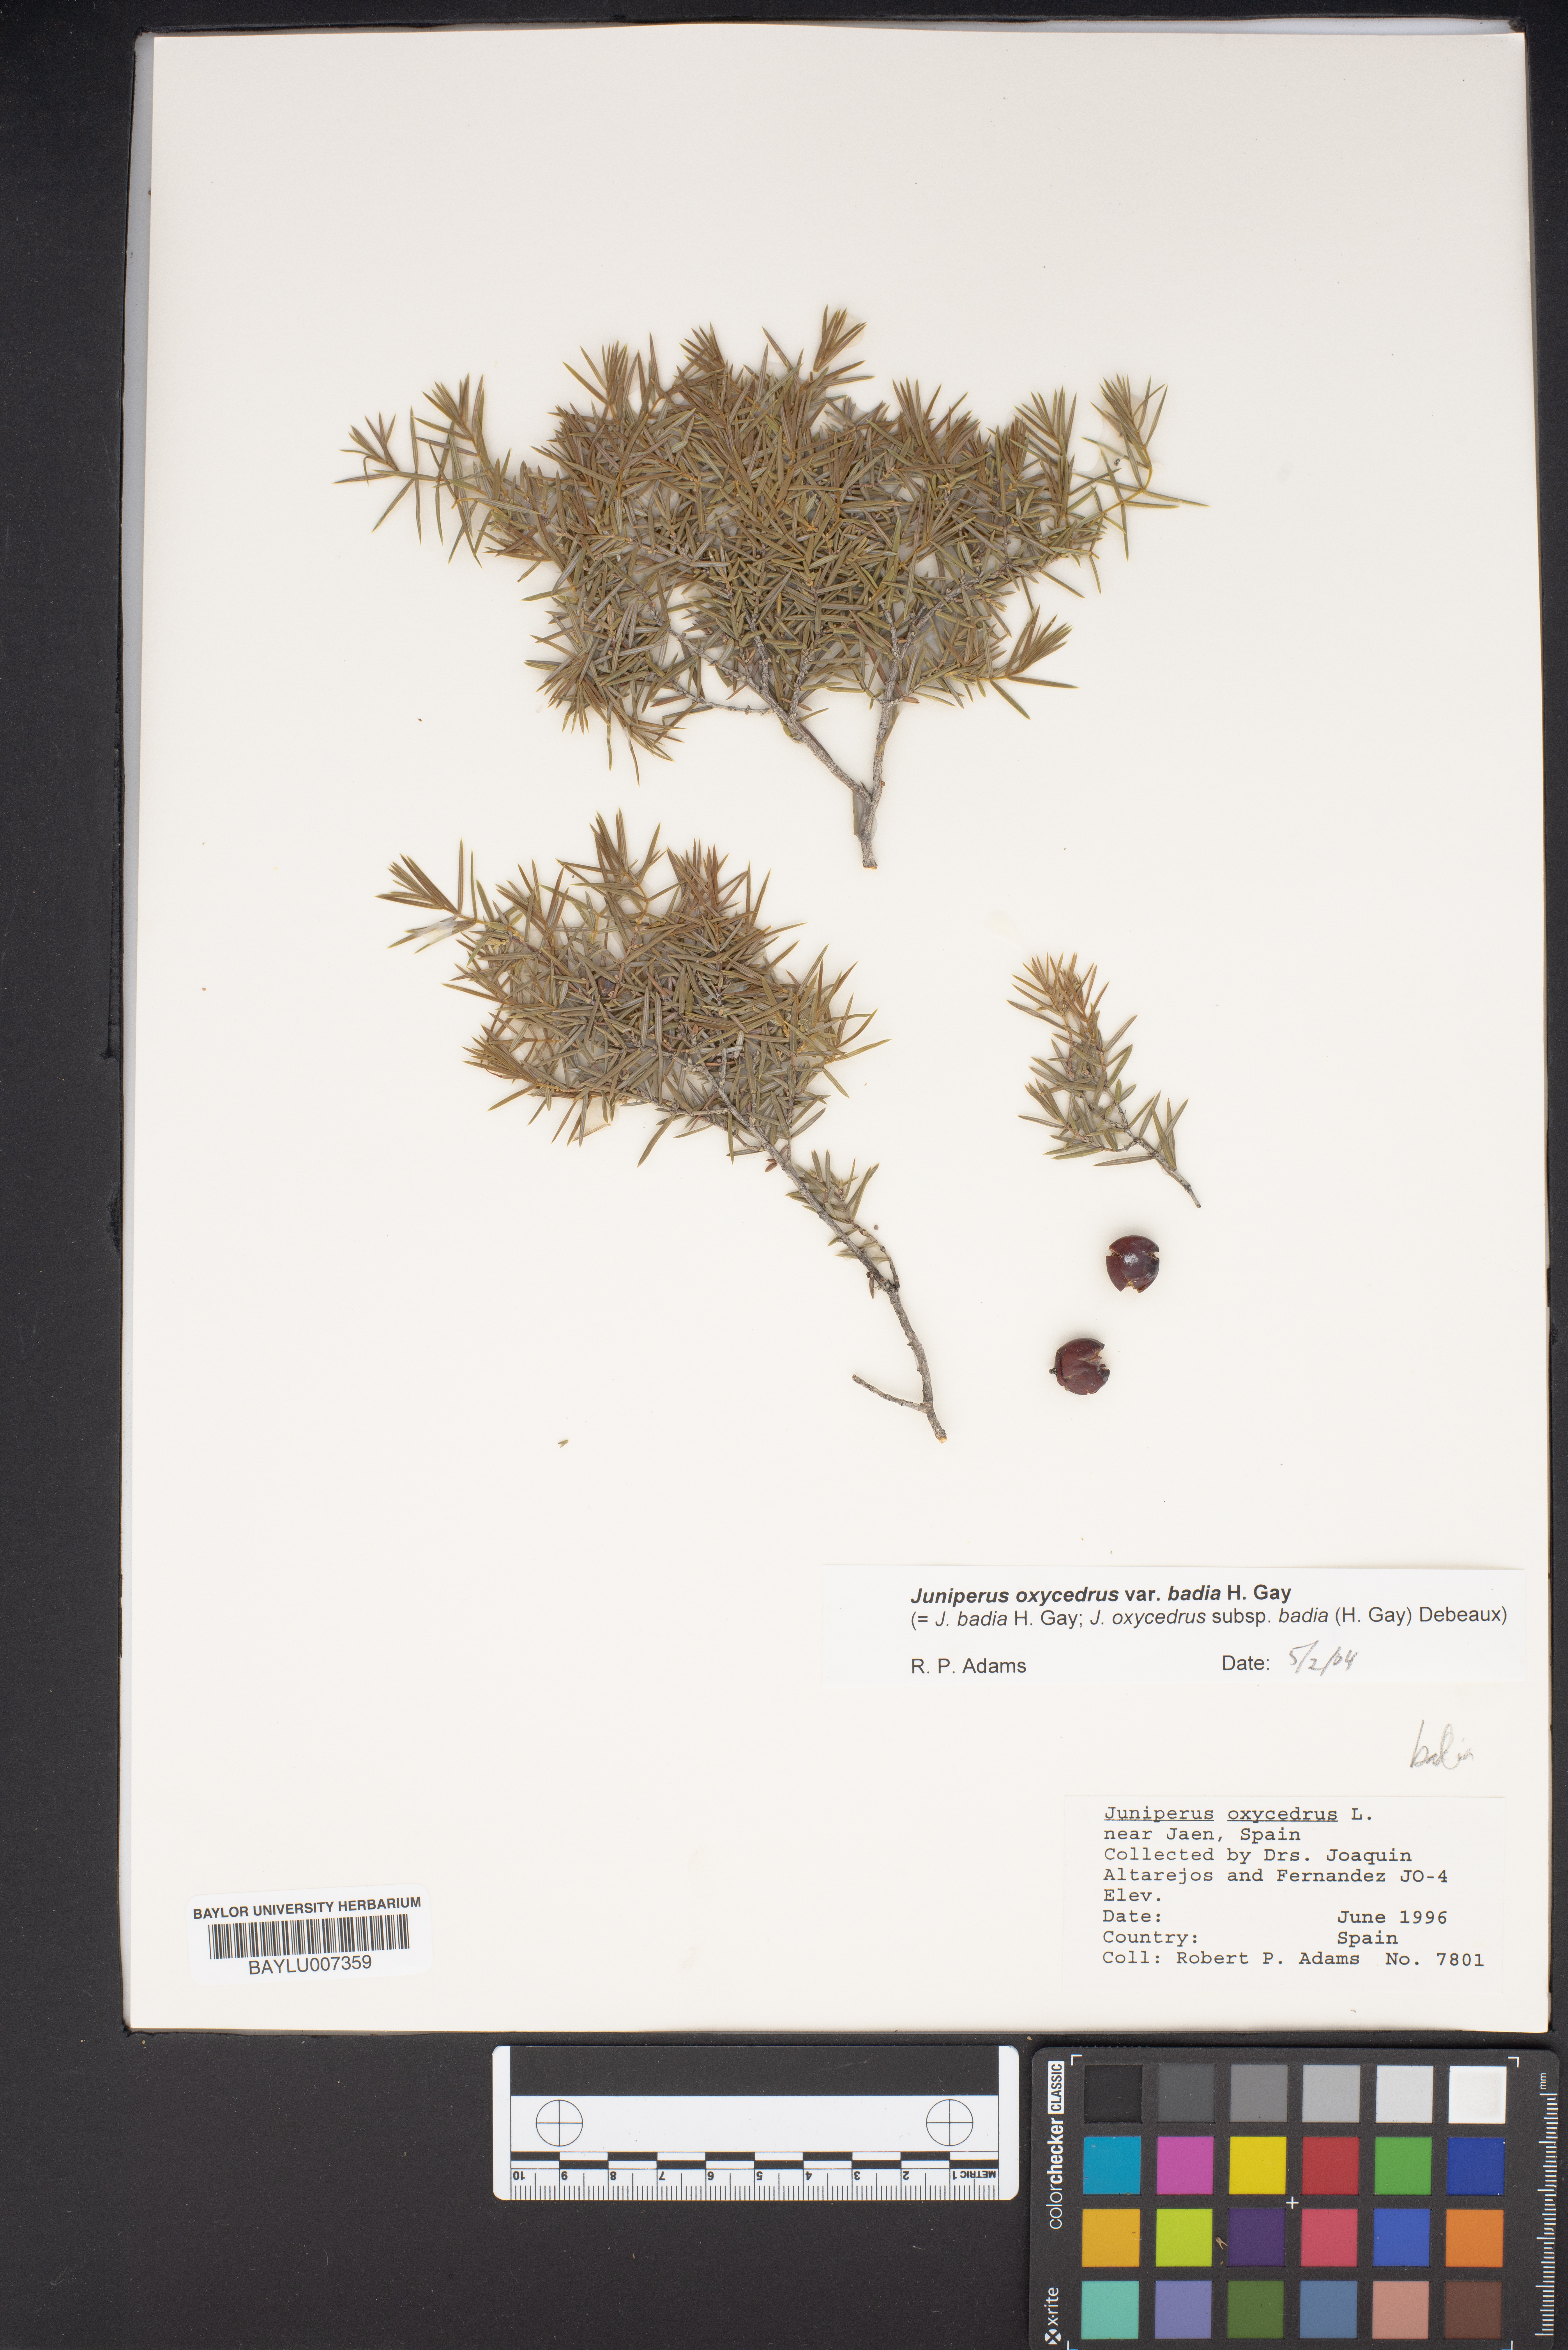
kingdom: Plantae
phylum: Tracheophyta
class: Pinopsida
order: Pinales
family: Cupressaceae
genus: Juniperus
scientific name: Juniperus oxycedrus
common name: Prickly juniper
